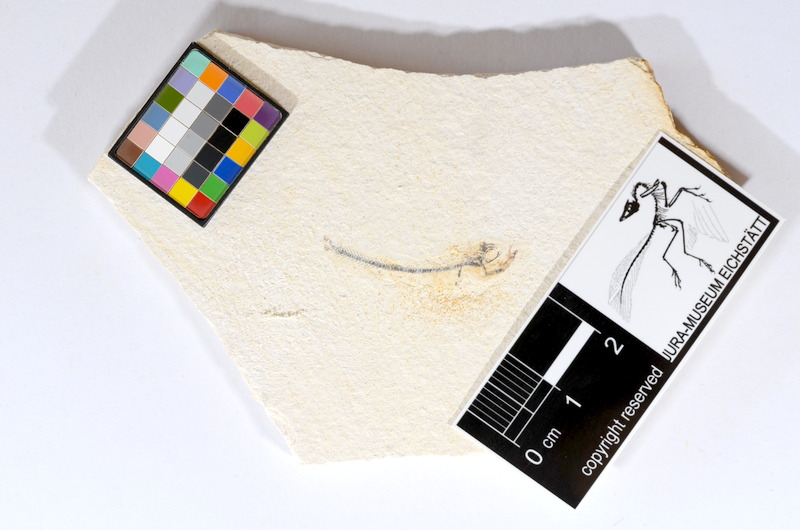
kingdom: Animalia
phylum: Chordata
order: Salmoniformes
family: Orthogonikleithridae
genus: Orthogonikleithrus
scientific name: Orthogonikleithrus hoelli
